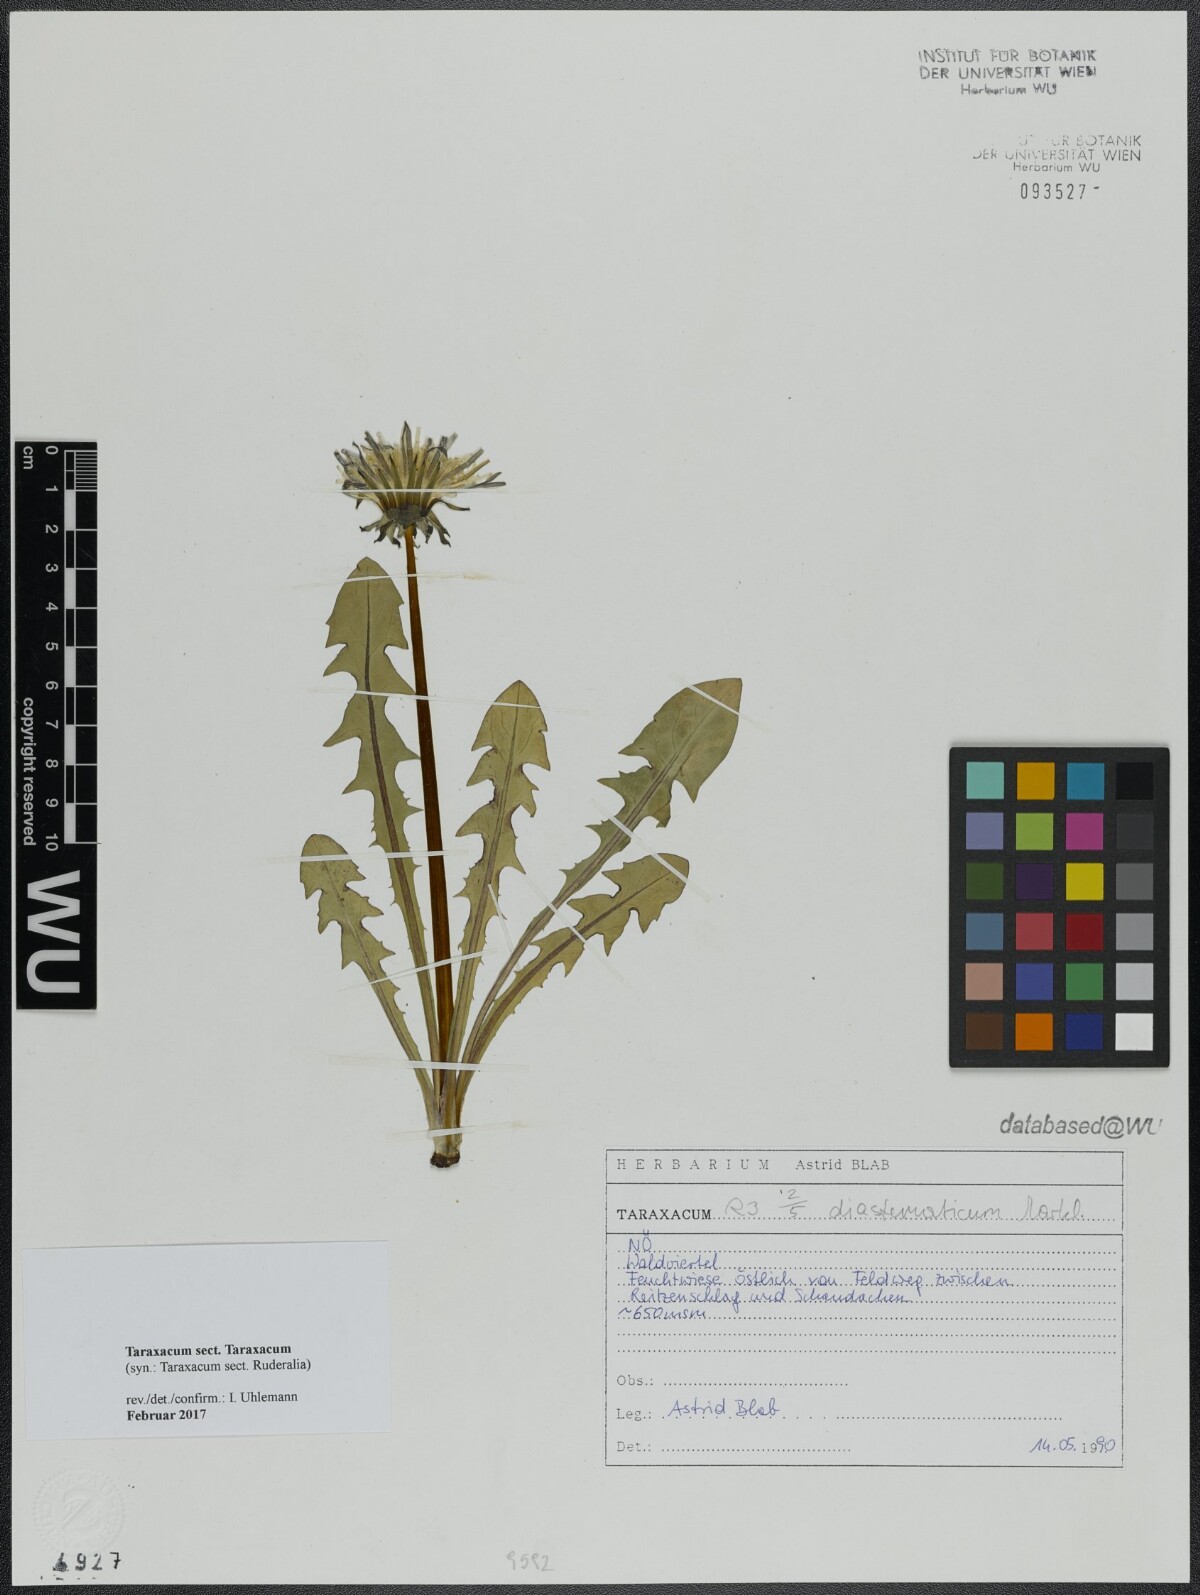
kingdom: Plantae
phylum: Tracheophyta
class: Magnoliopsida
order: Asterales
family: Asteraceae
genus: Taraxacum
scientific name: Taraxacum
